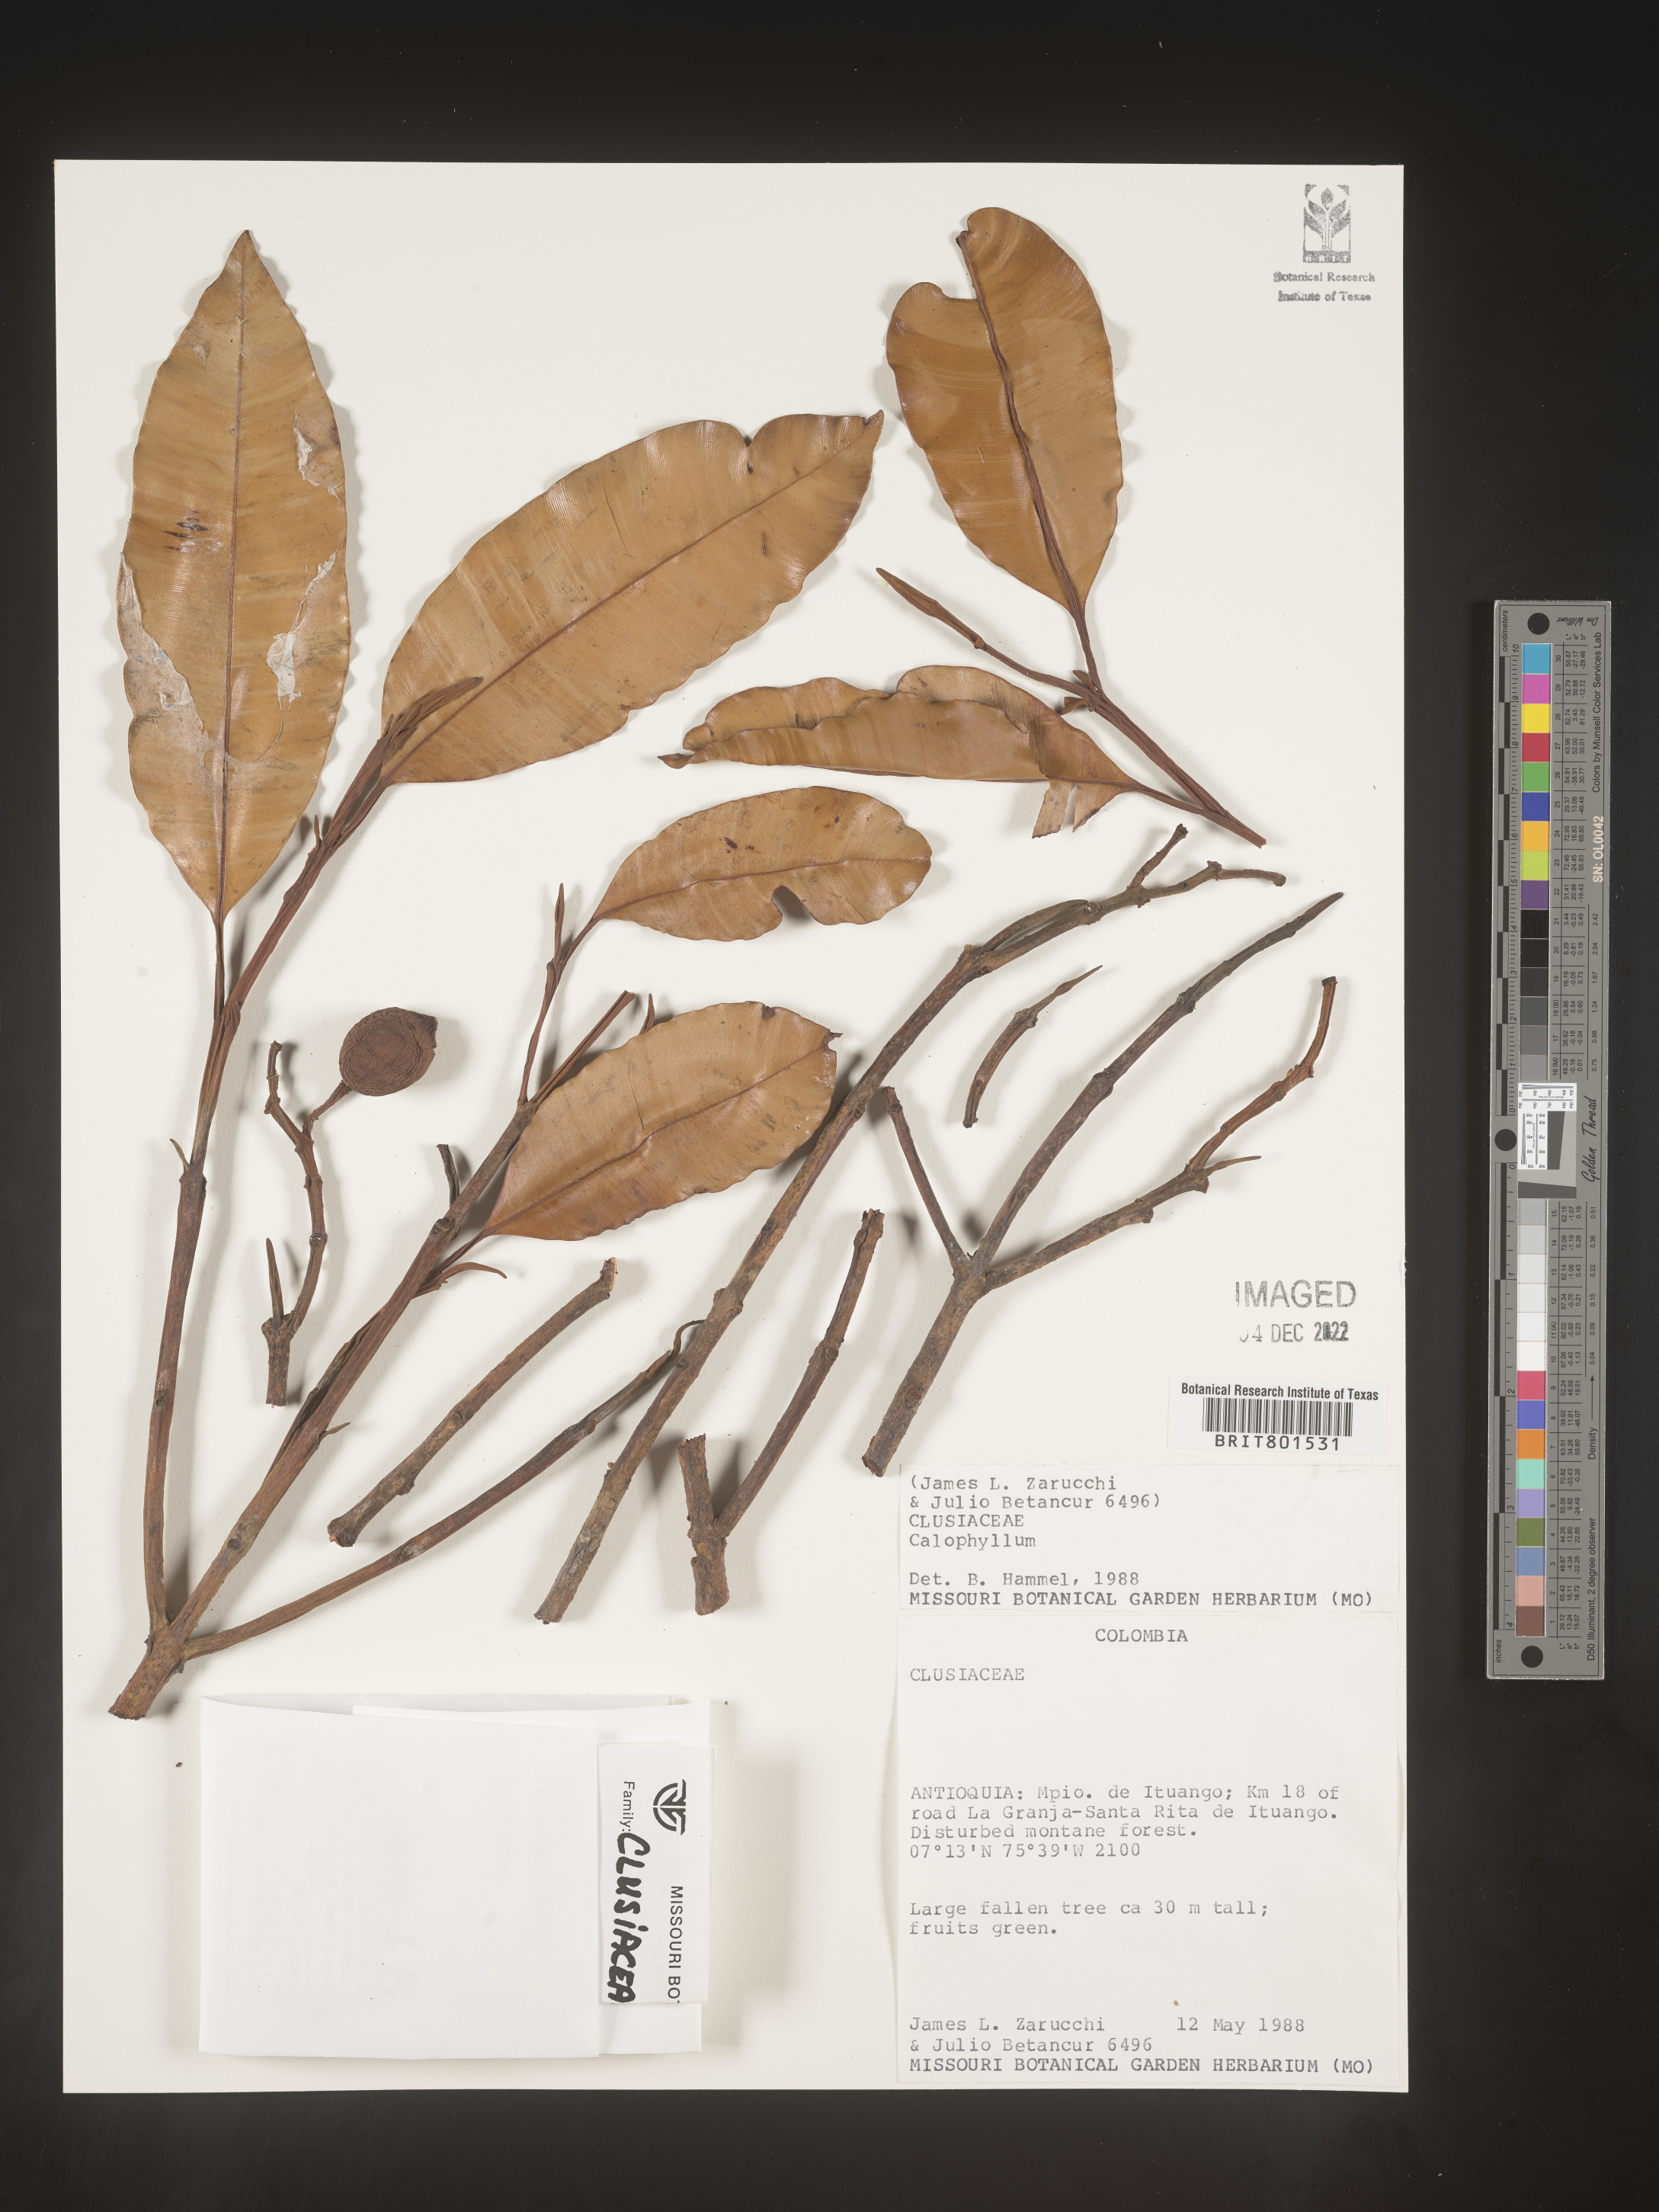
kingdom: Plantae
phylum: Tracheophyta
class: Magnoliopsida
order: Malpighiales
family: Calophyllaceae
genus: Calophyllum
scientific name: Calophyllum
